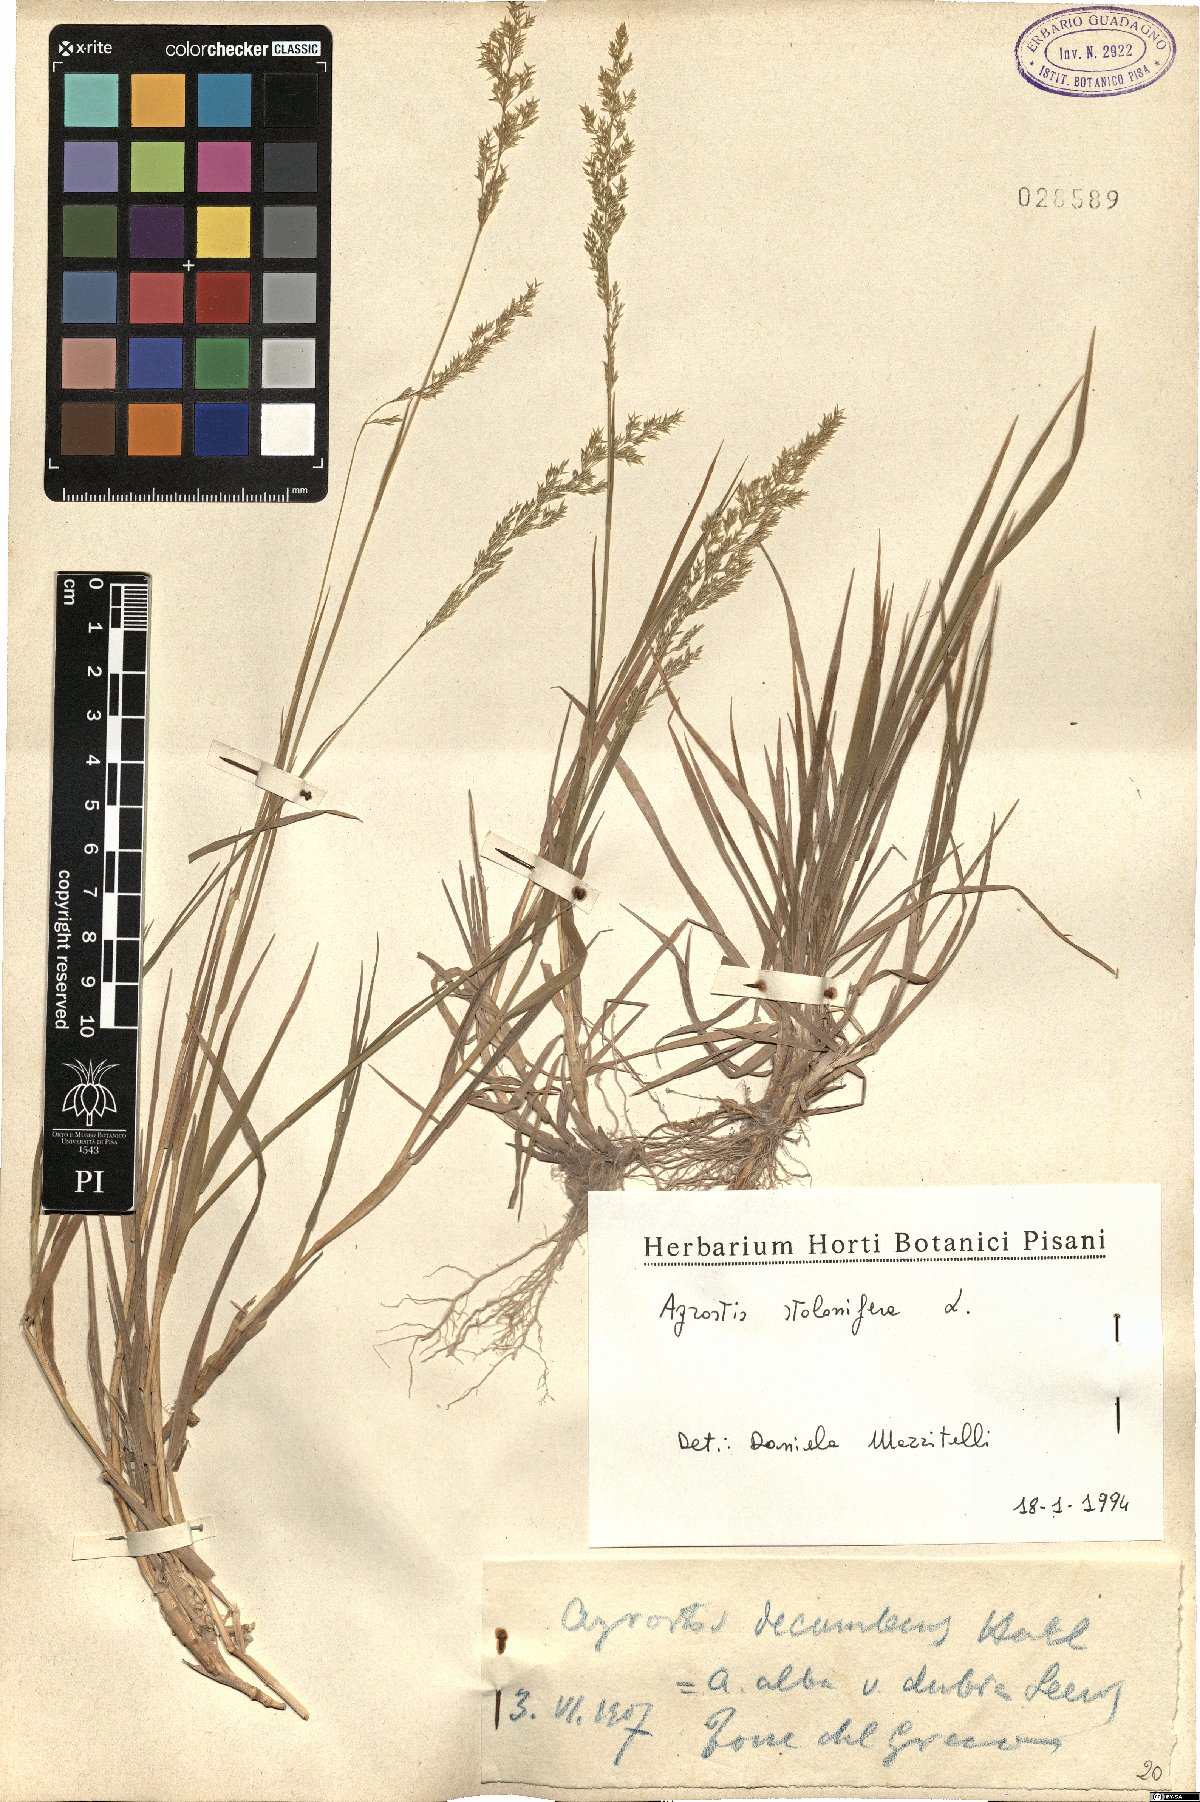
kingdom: Plantae
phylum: Tracheophyta
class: Liliopsida
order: Poales
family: Poaceae
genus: Agrostis
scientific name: Agrostis stolonifera
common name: Creeping bentgrass
